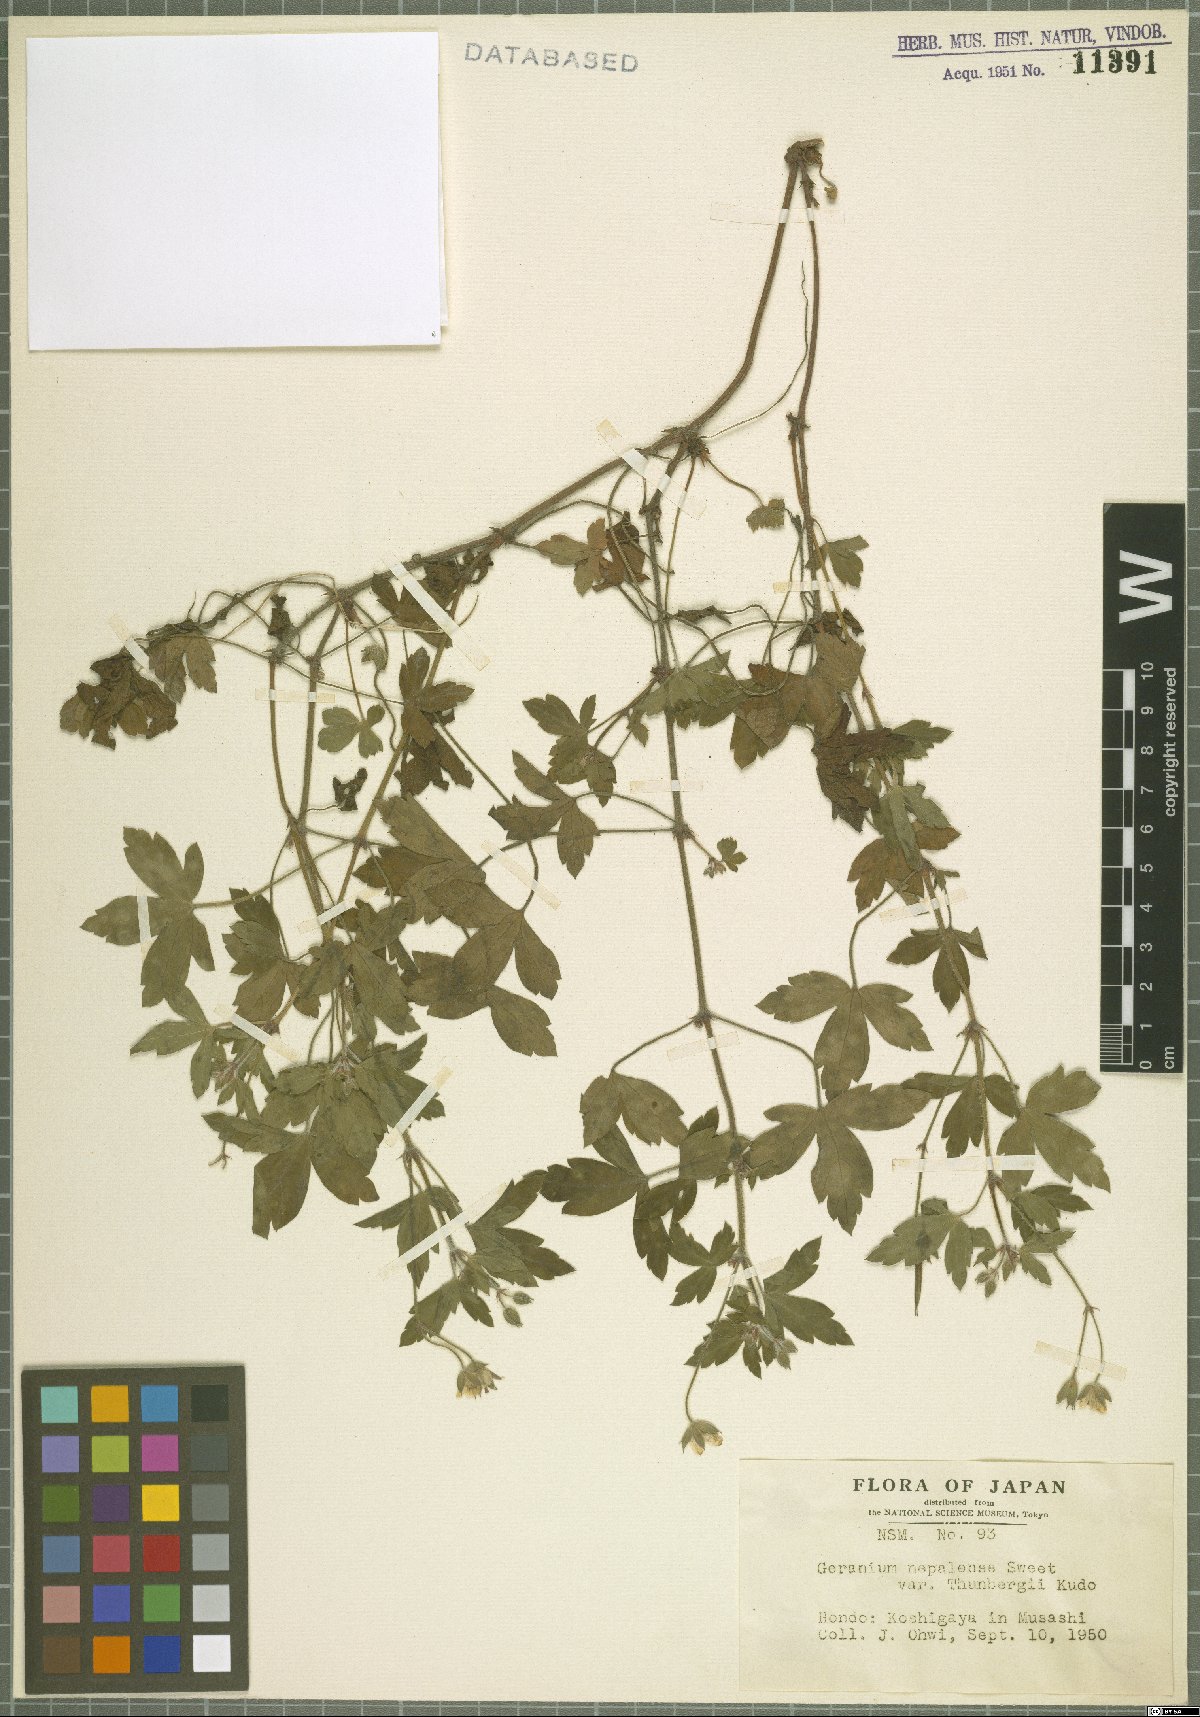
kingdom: Plantae
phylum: Tracheophyta
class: Magnoliopsida
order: Geraniales
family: Geraniaceae
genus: Geranium
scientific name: Geranium thunbergii
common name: Dewdrop crane's-bill
